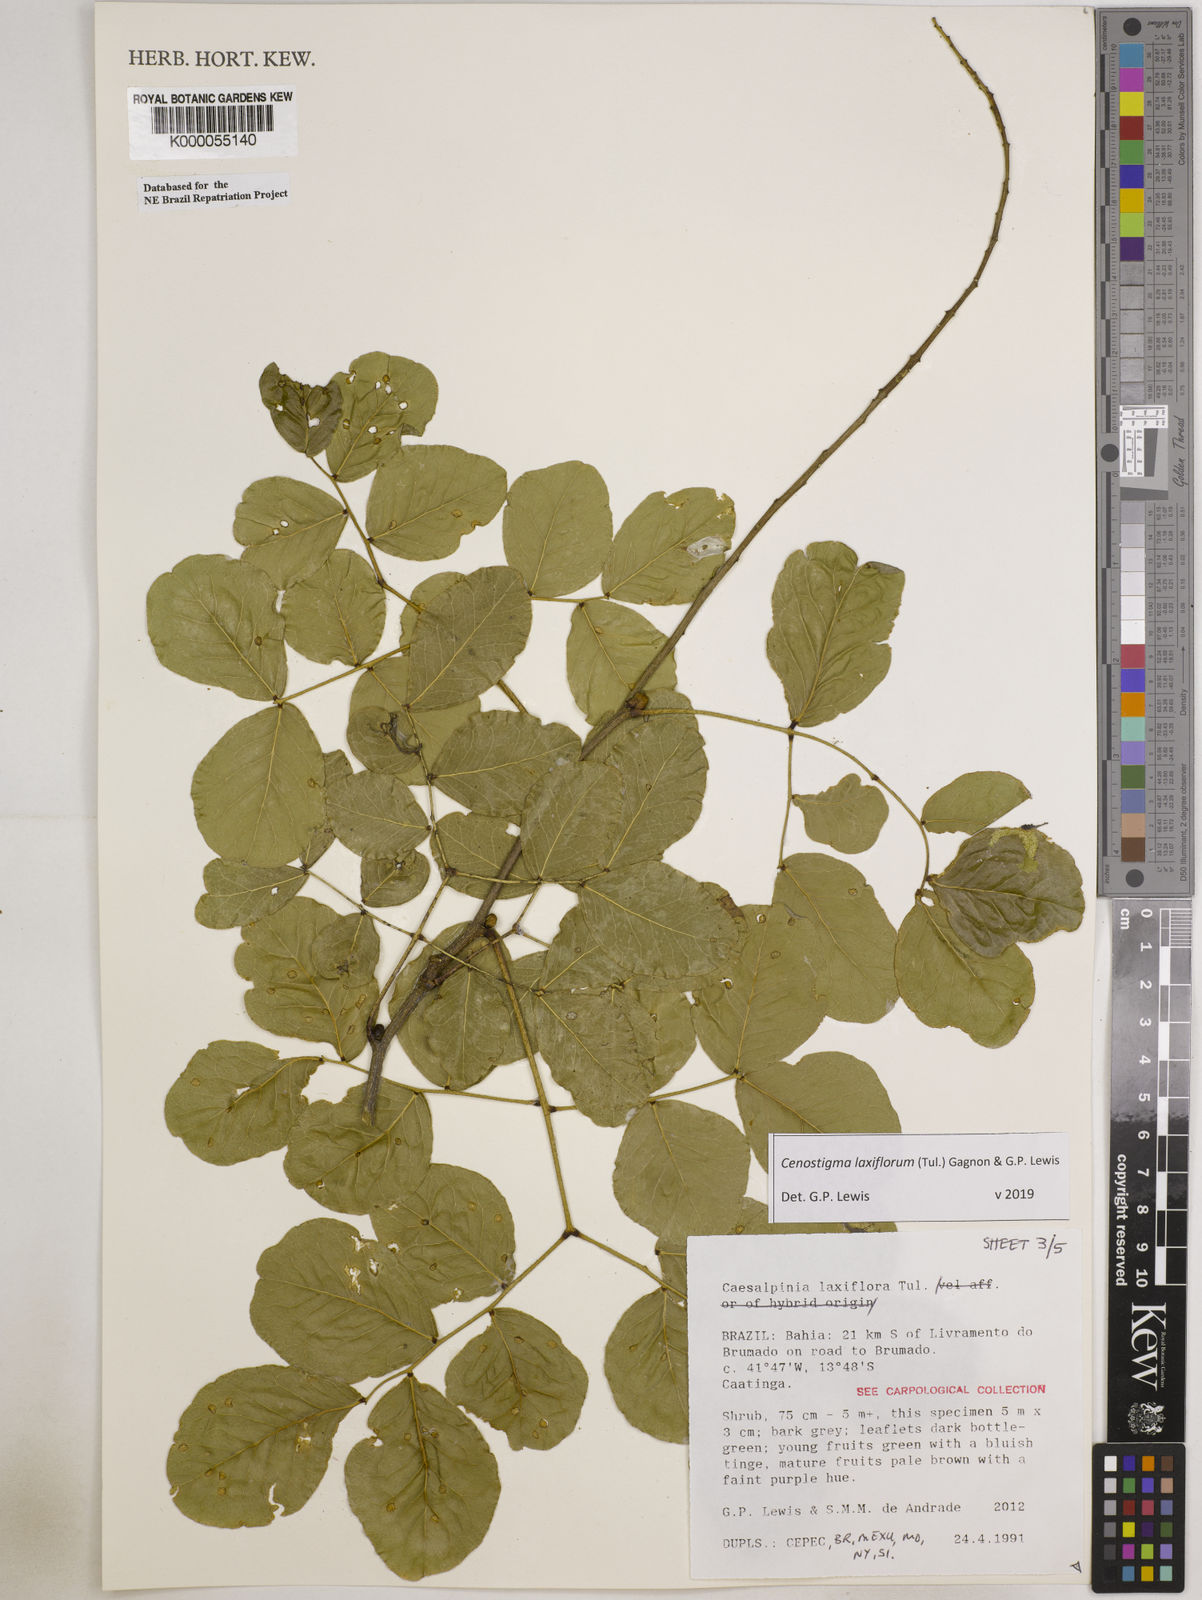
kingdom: Plantae
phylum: Tracheophyta
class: Magnoliopsida
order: Fabales
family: Fabaceae
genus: Cenostigma
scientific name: Cenostigma laxiflorum
